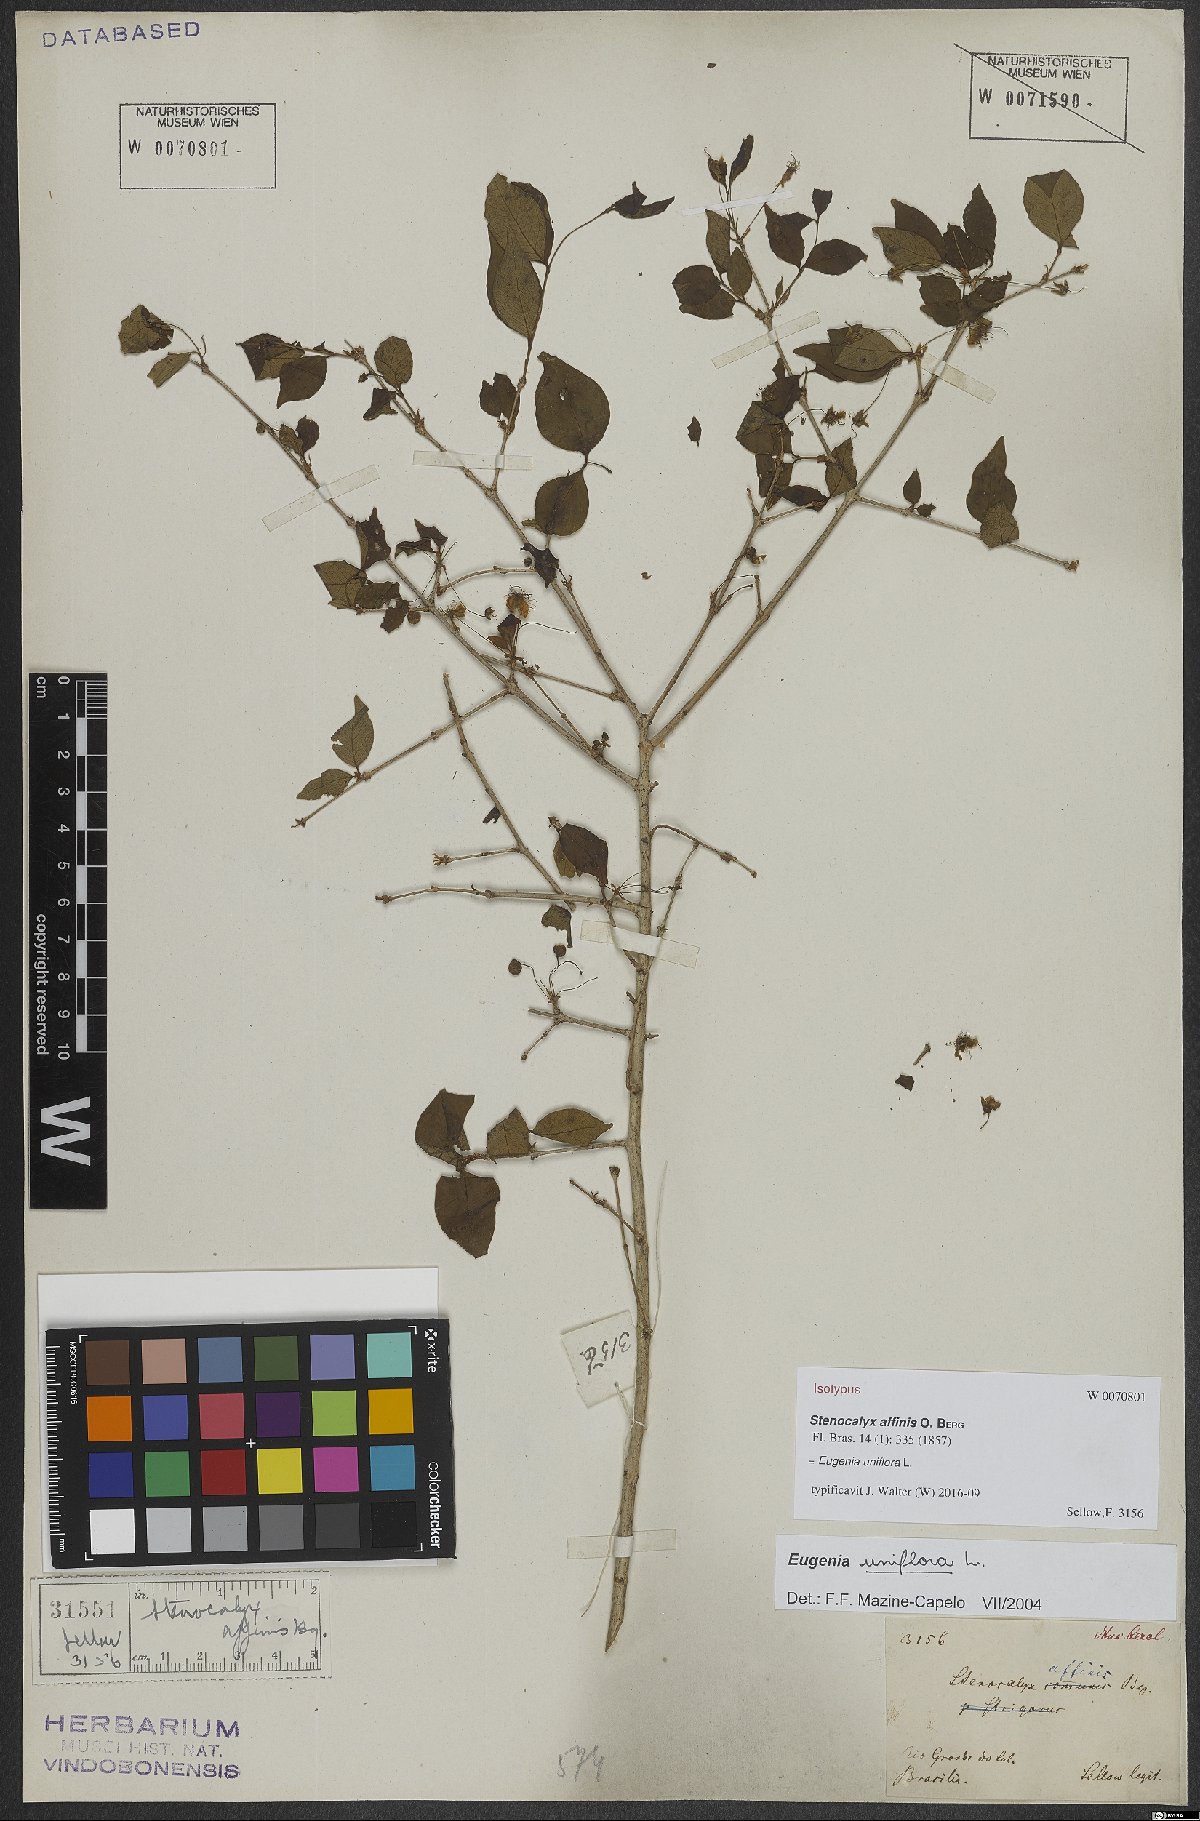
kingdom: Plantae
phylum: Tracheophyta
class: Magnoliopsida
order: Myrtales
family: Myrtaceae
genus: Eugenia
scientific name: Eugenia uniflora
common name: Surinam cherry
